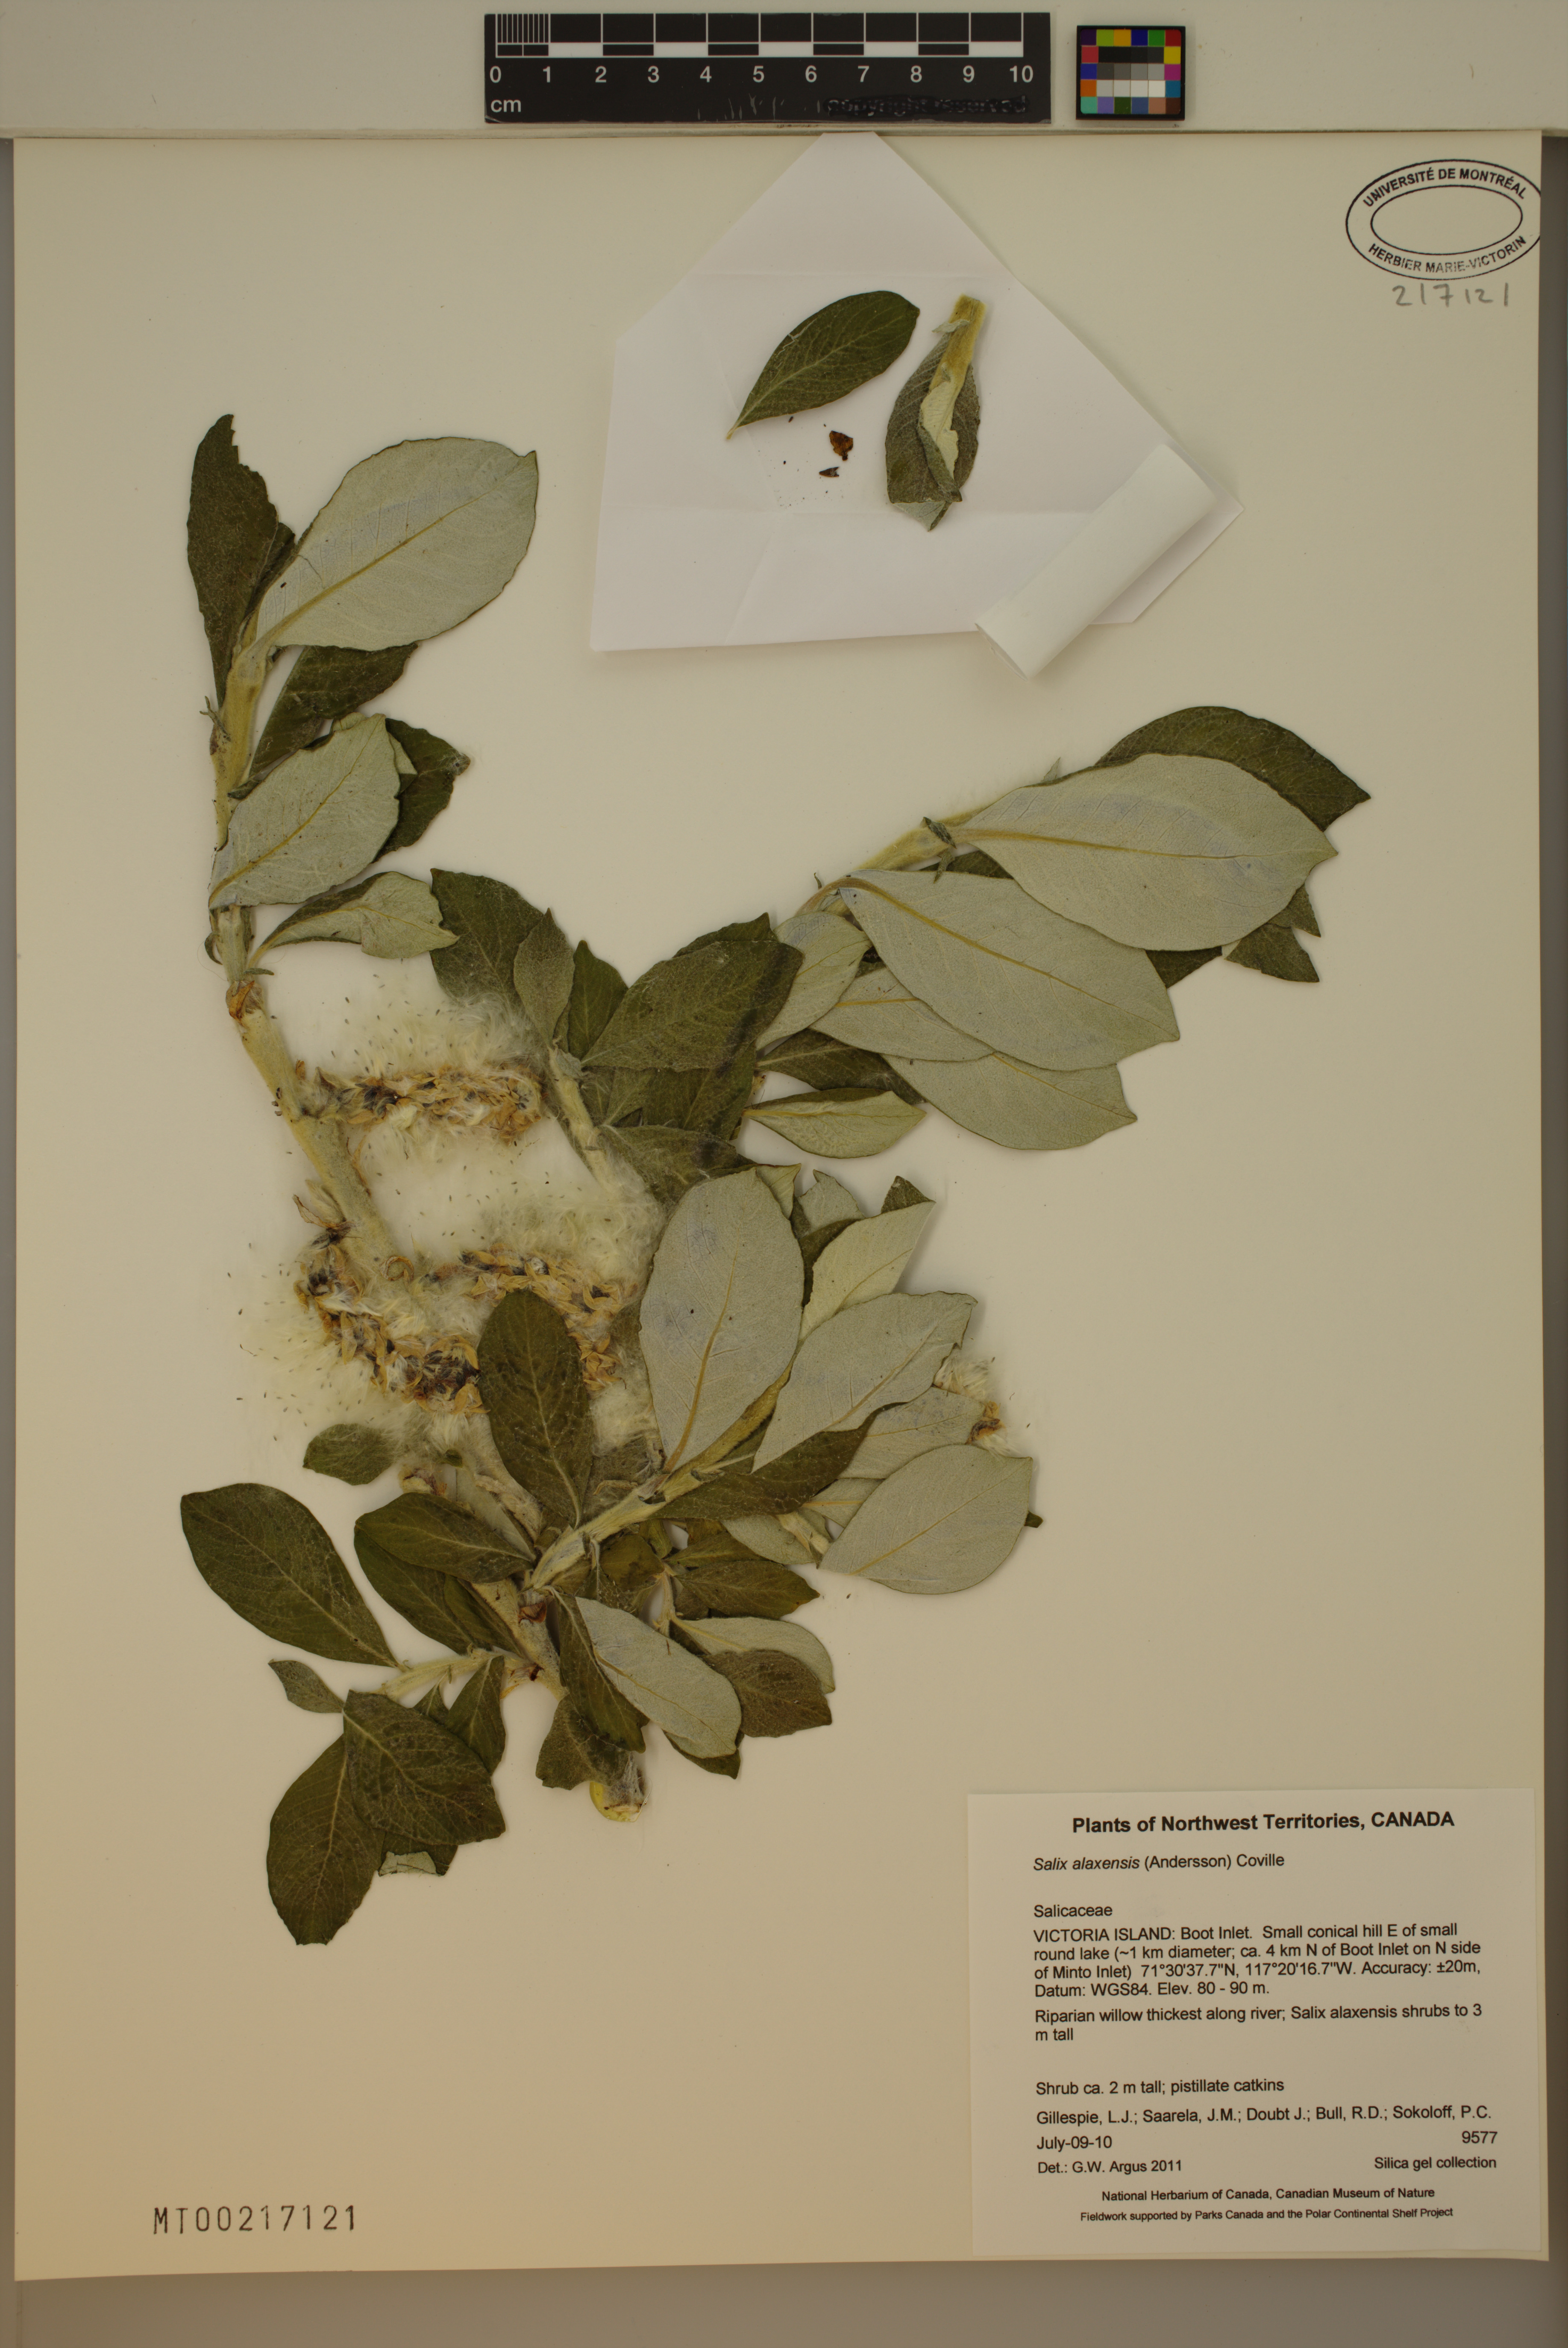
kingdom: Plantae
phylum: Tracheophyta
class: Magnoliopsida
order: Malpighiales
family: Salicaceae
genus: Salix
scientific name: Salix alaxensis
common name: Feltleaf willow
